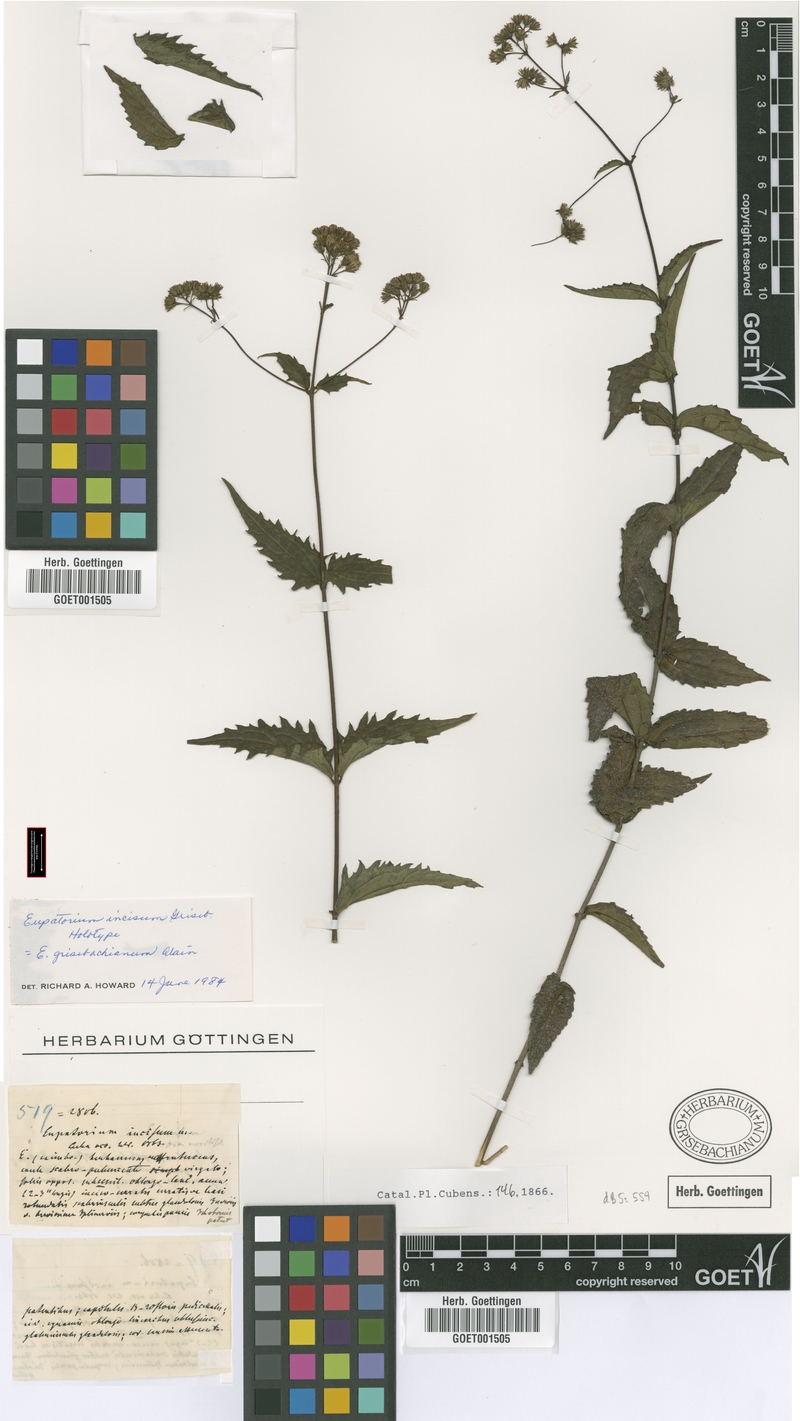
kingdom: Plantae
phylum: Tracheophyta
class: Magnoliopsida
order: Asterales
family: Asteraceae
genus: Koanophyllon
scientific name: Koanophyllon grisebachianum
